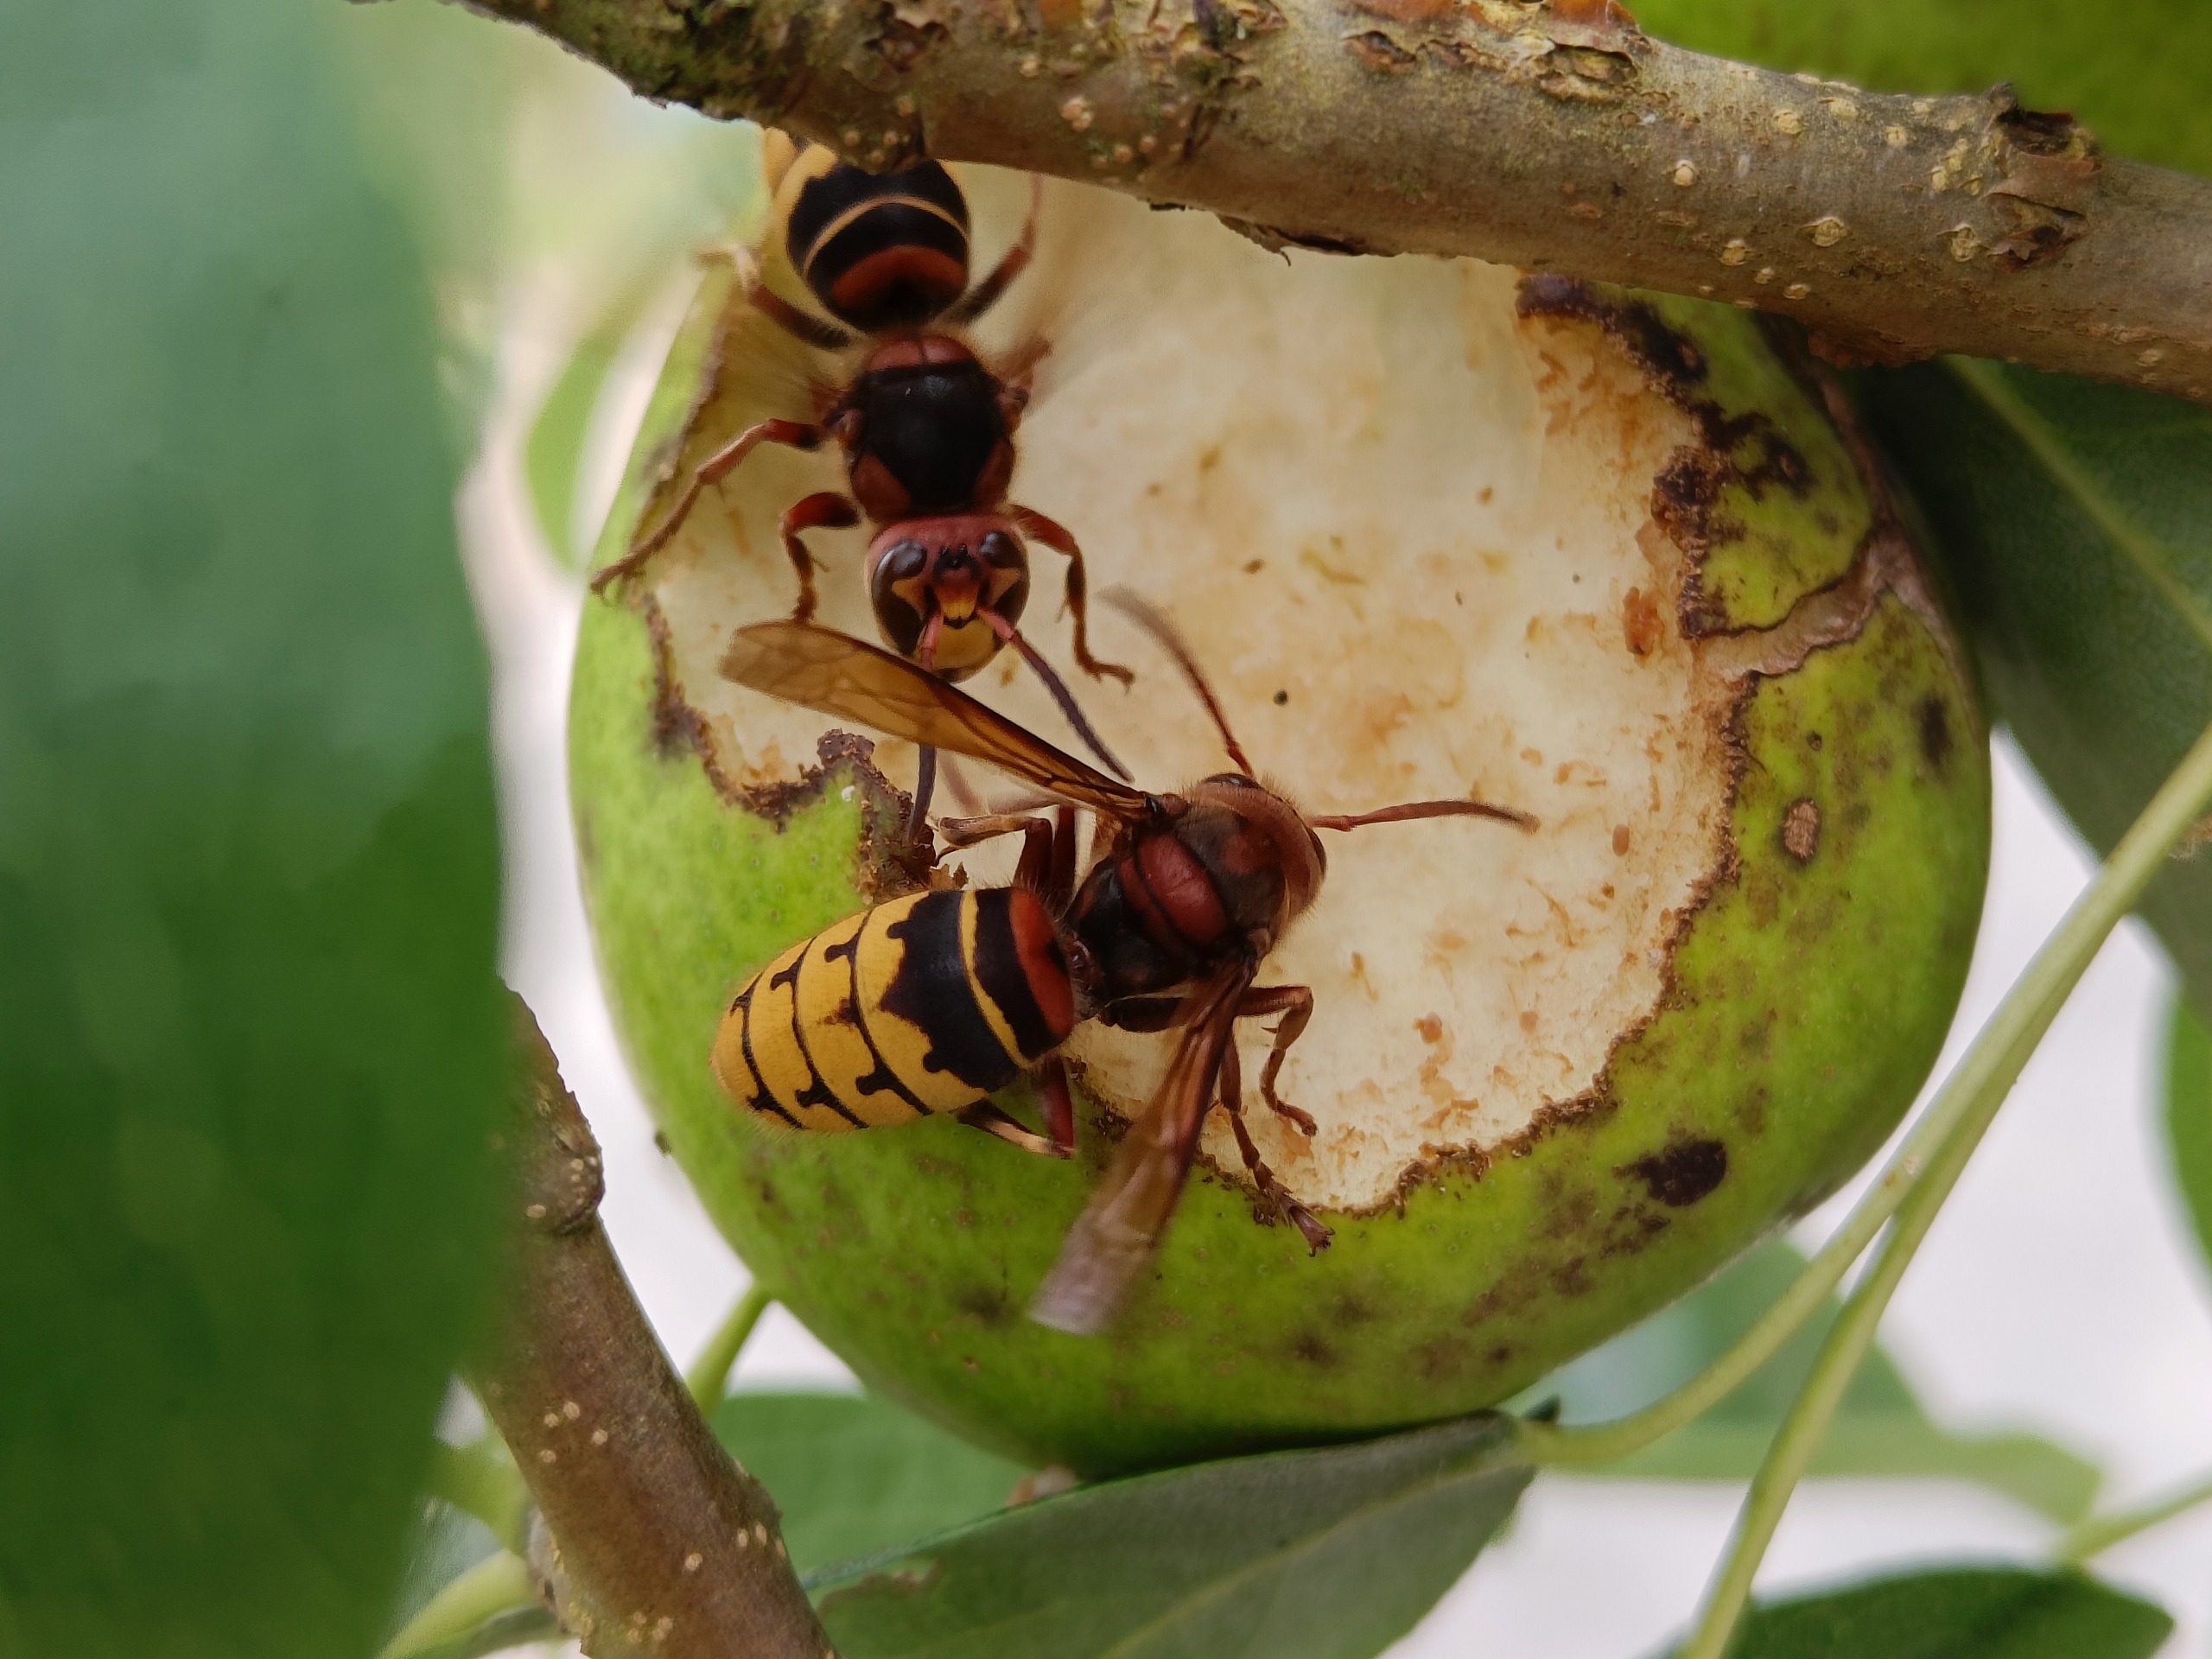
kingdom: Animalia
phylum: Arthropoda
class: Insecta
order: Hymenoptera
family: Vespidae
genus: Vespa
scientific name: Vespa crabro
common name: Stor gedehams
